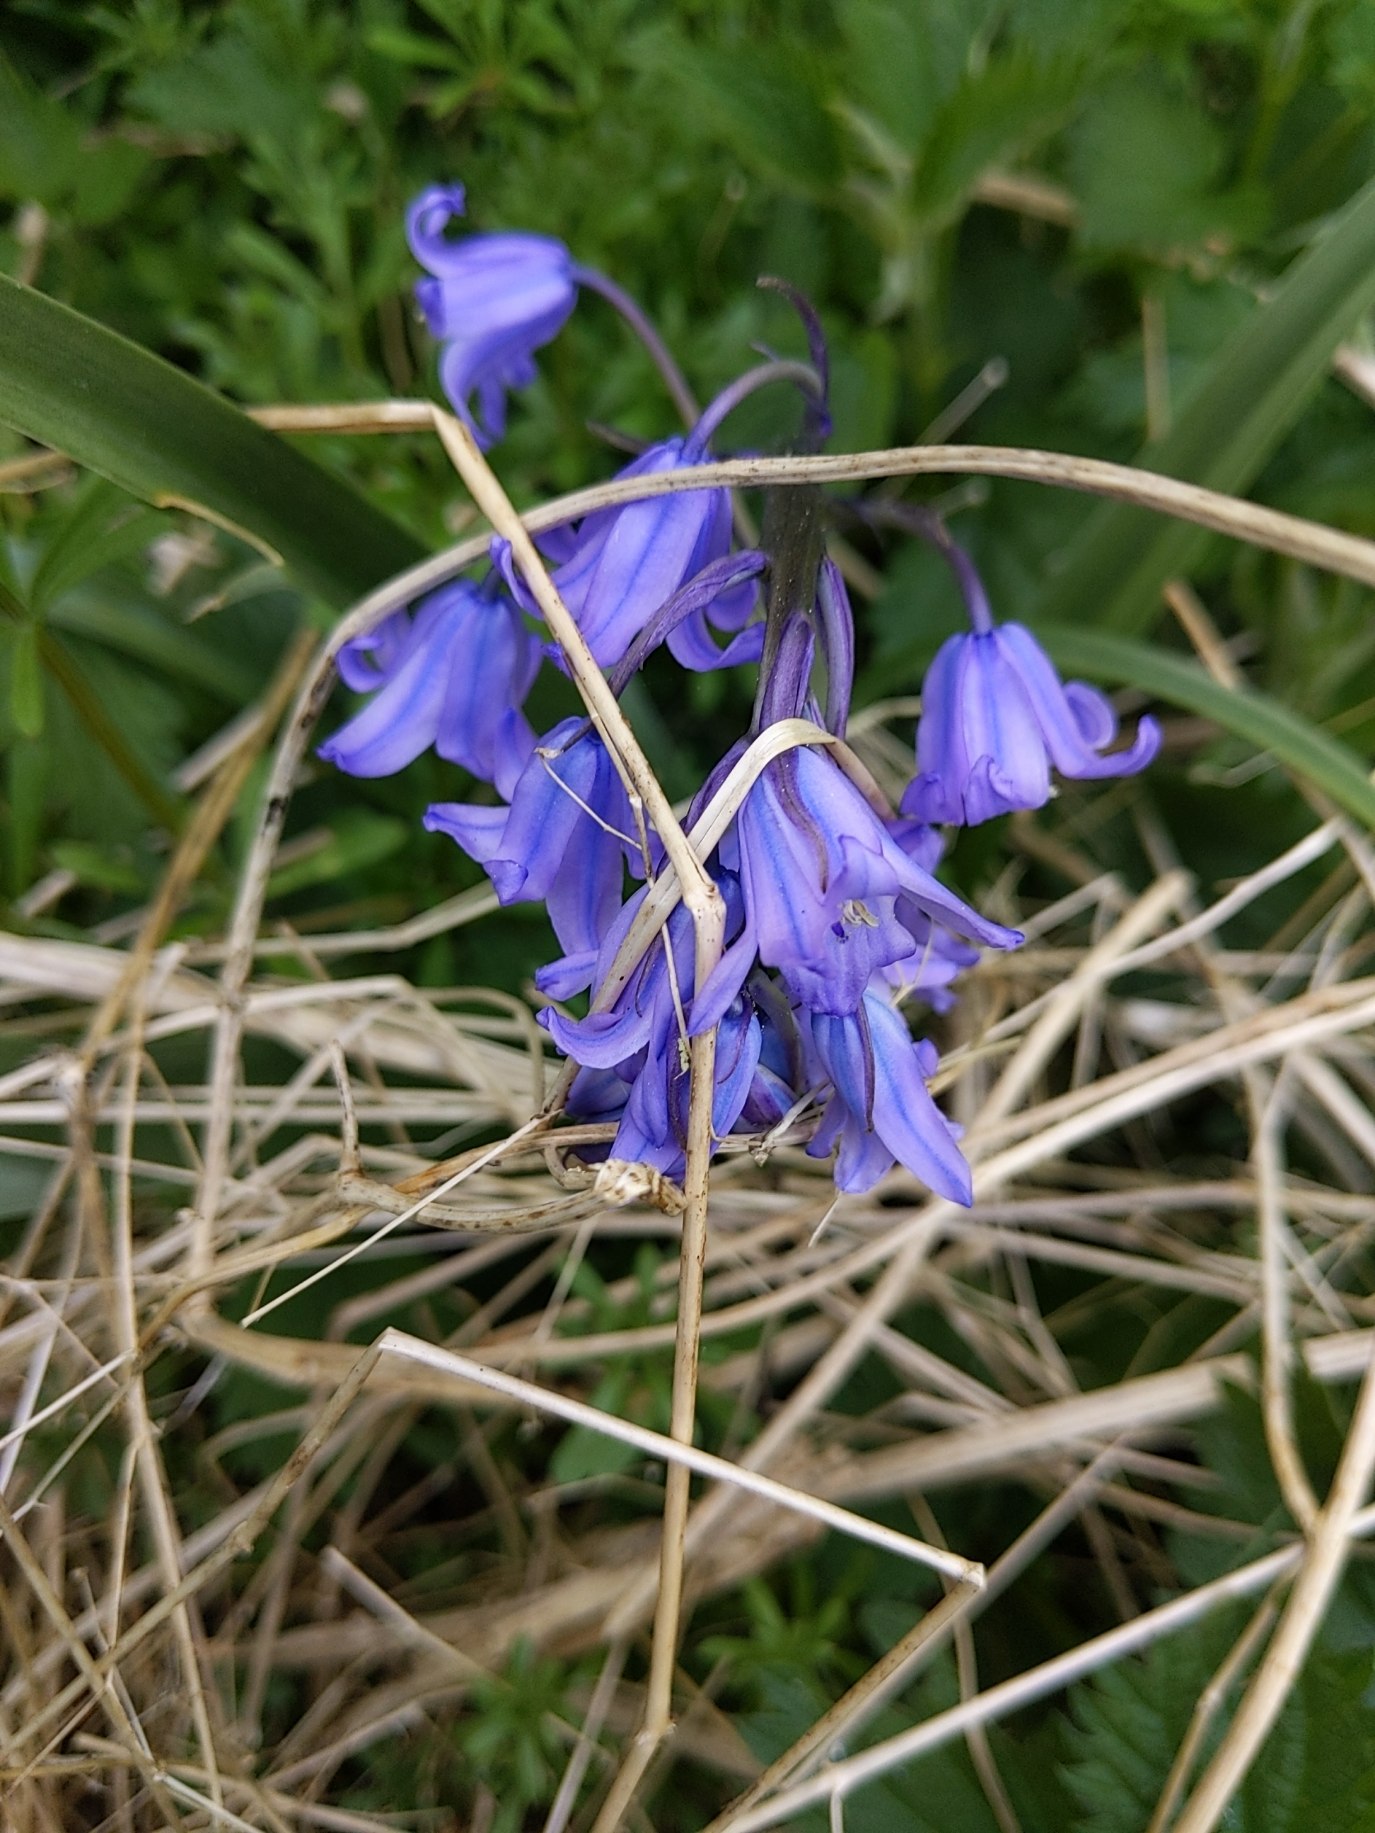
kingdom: Plantae
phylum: Tracheophyta
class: Liliopsida
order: Asparagales
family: Asparagaceae
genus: Hyacinthoides
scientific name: Hyacinthoides massartiana
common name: Hybrid-klokkeskilla
